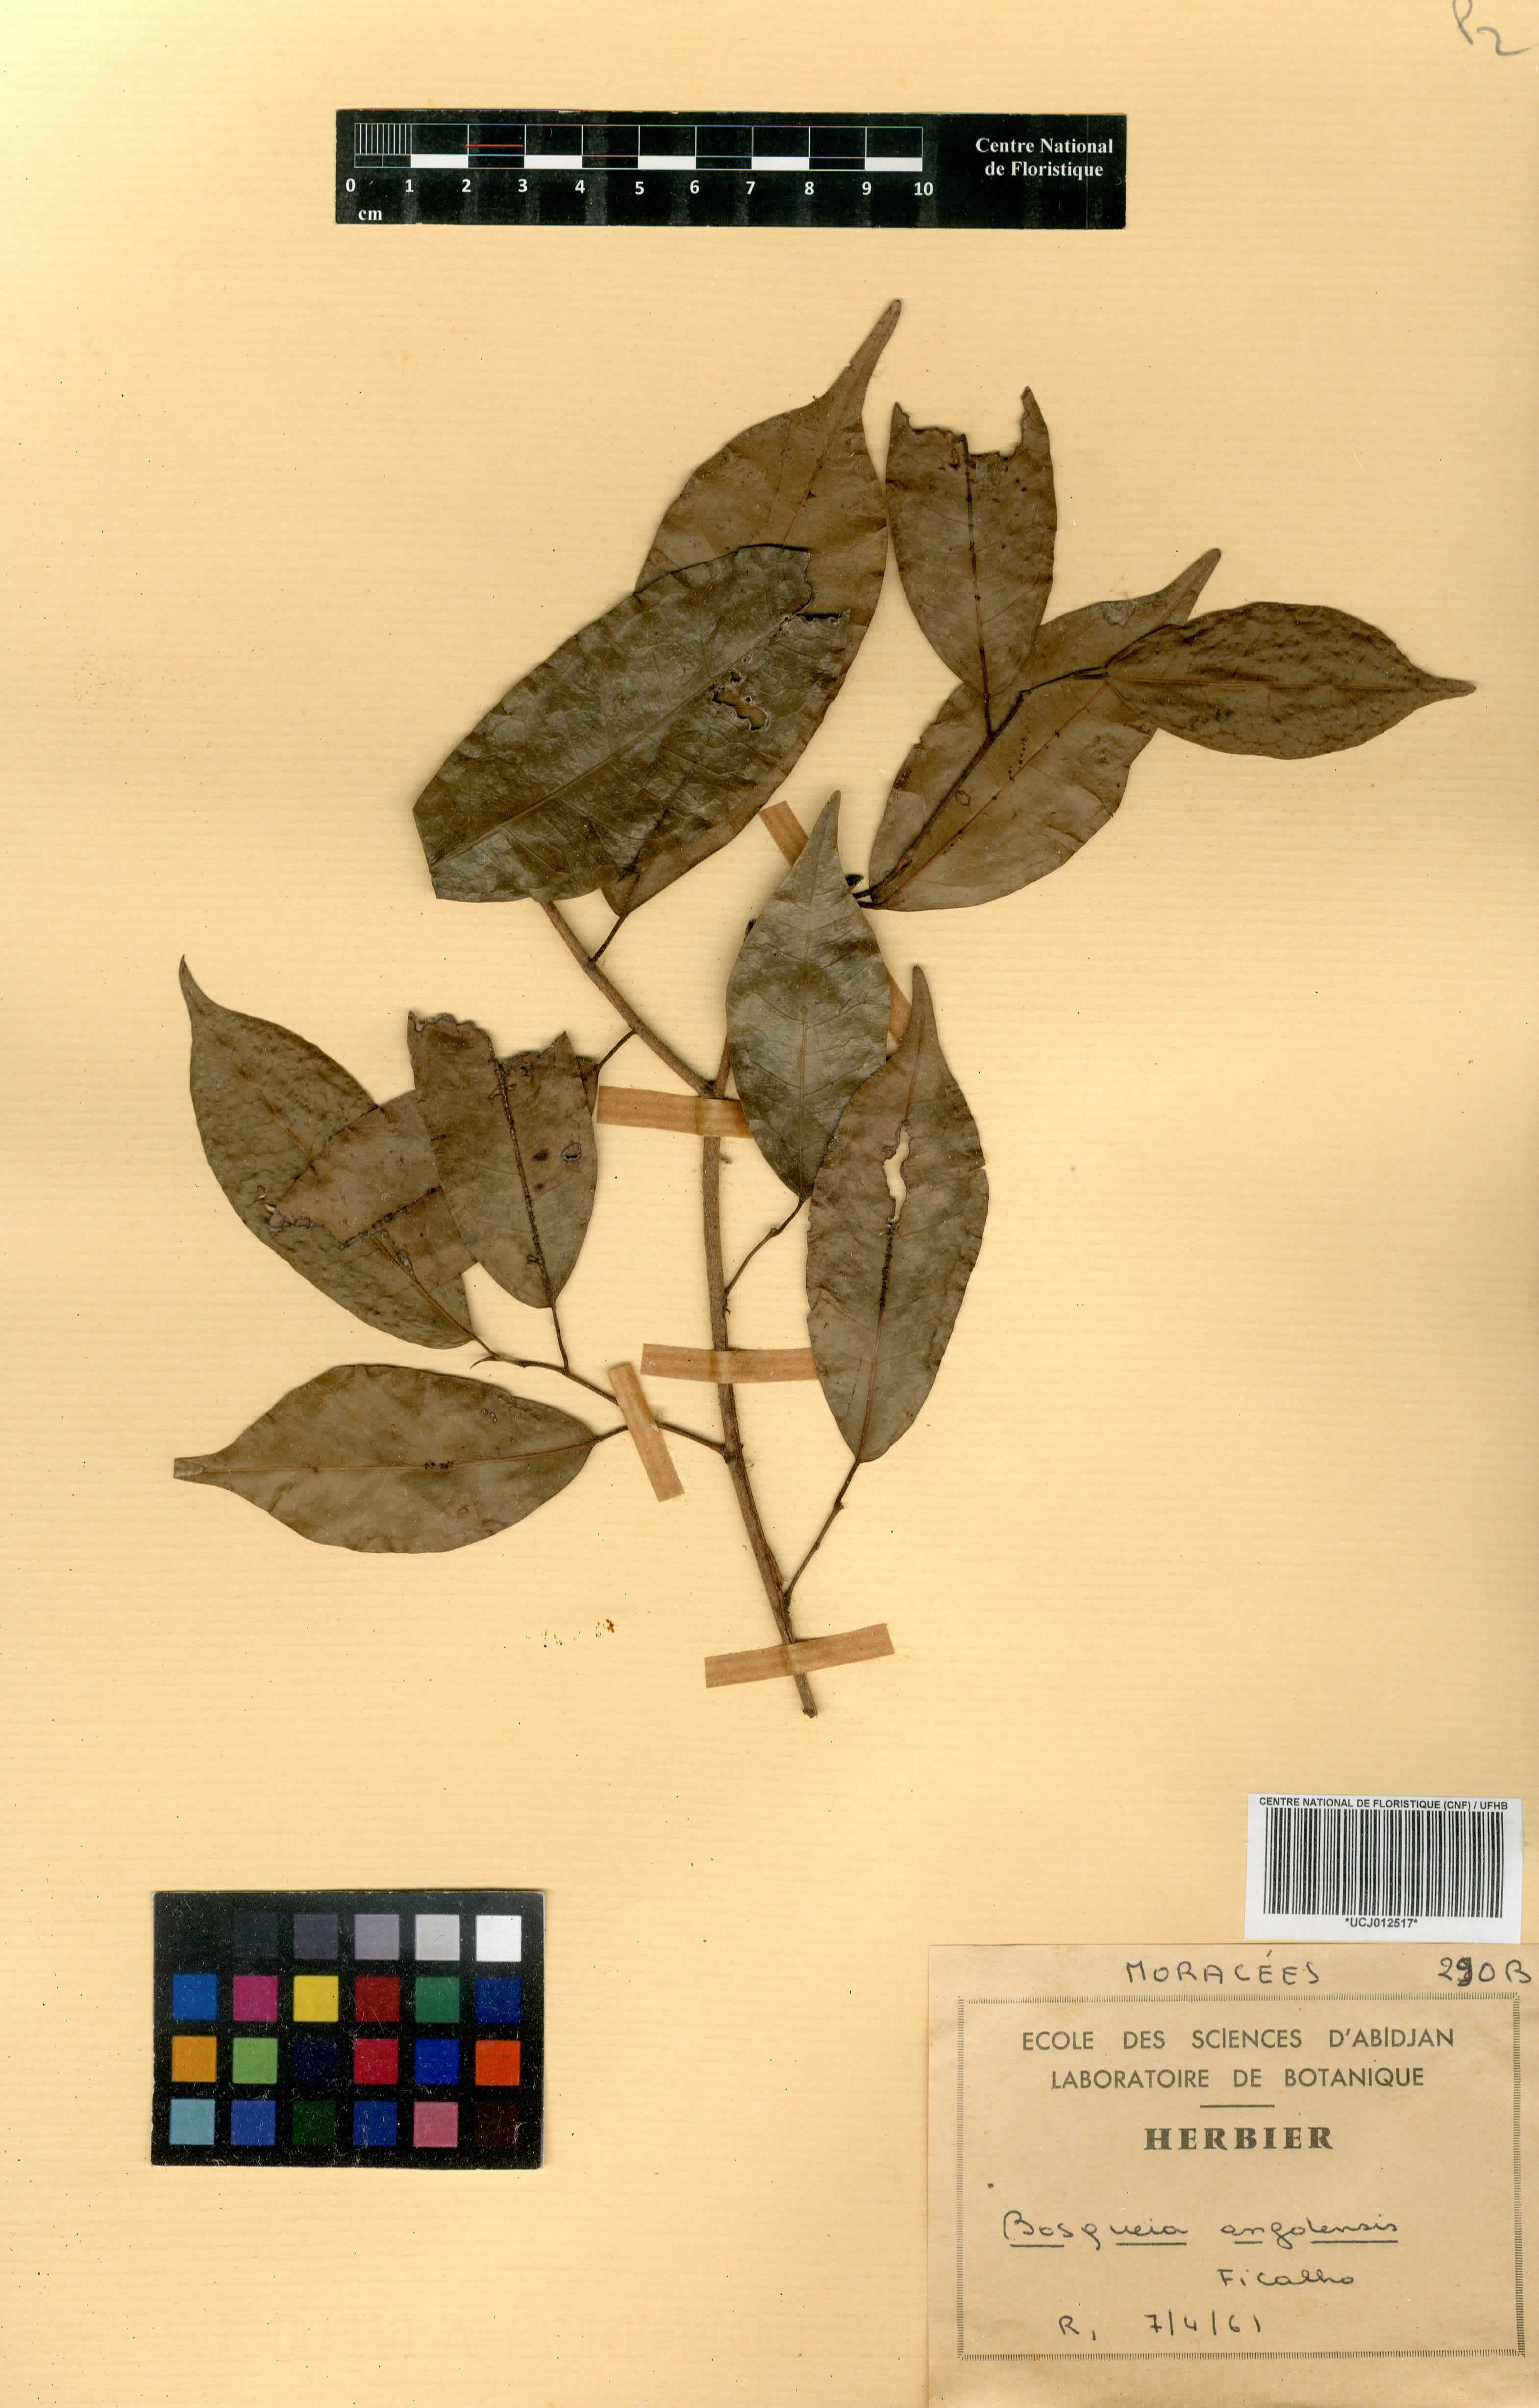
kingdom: Plantae
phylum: Tracheophyta
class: Magnoliopsida
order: Rosales
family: Moraceae
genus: Trilepisium
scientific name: Trilepisium madagascariense
